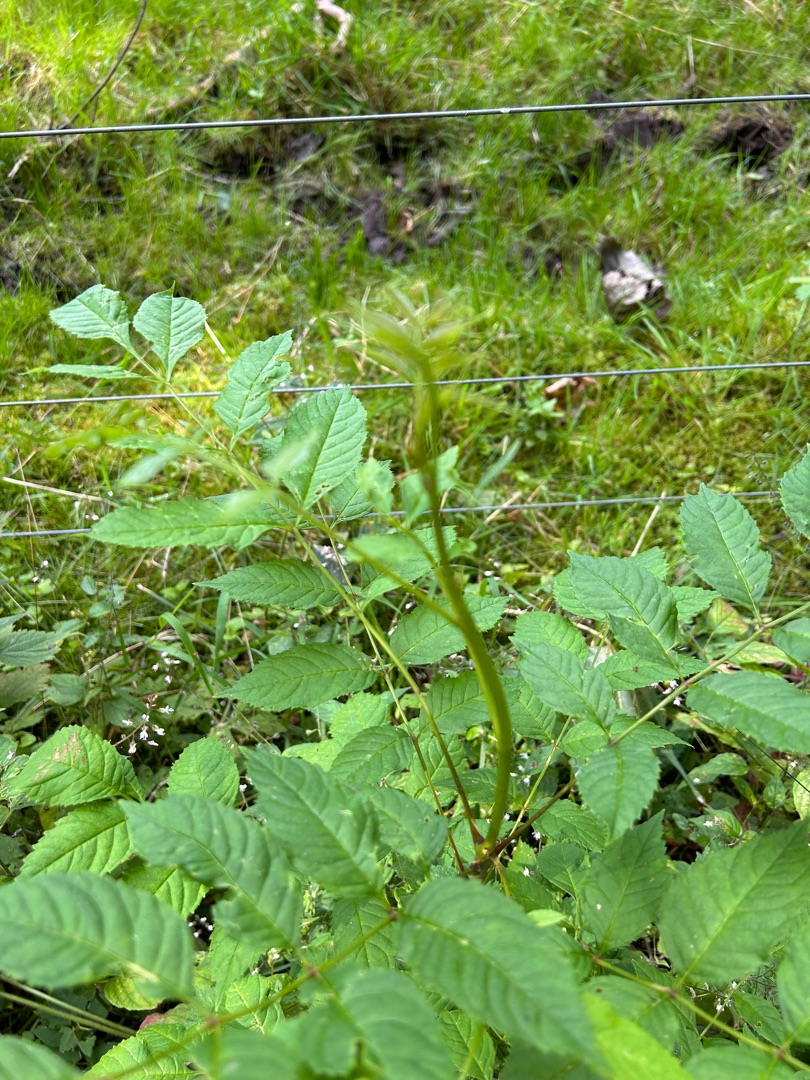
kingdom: Plantae
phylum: Tracheophyta
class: Magnoliopsida
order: Lamiales
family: Oleaceae
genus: Fraxinus
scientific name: Fraxinus excelsior
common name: Ask
